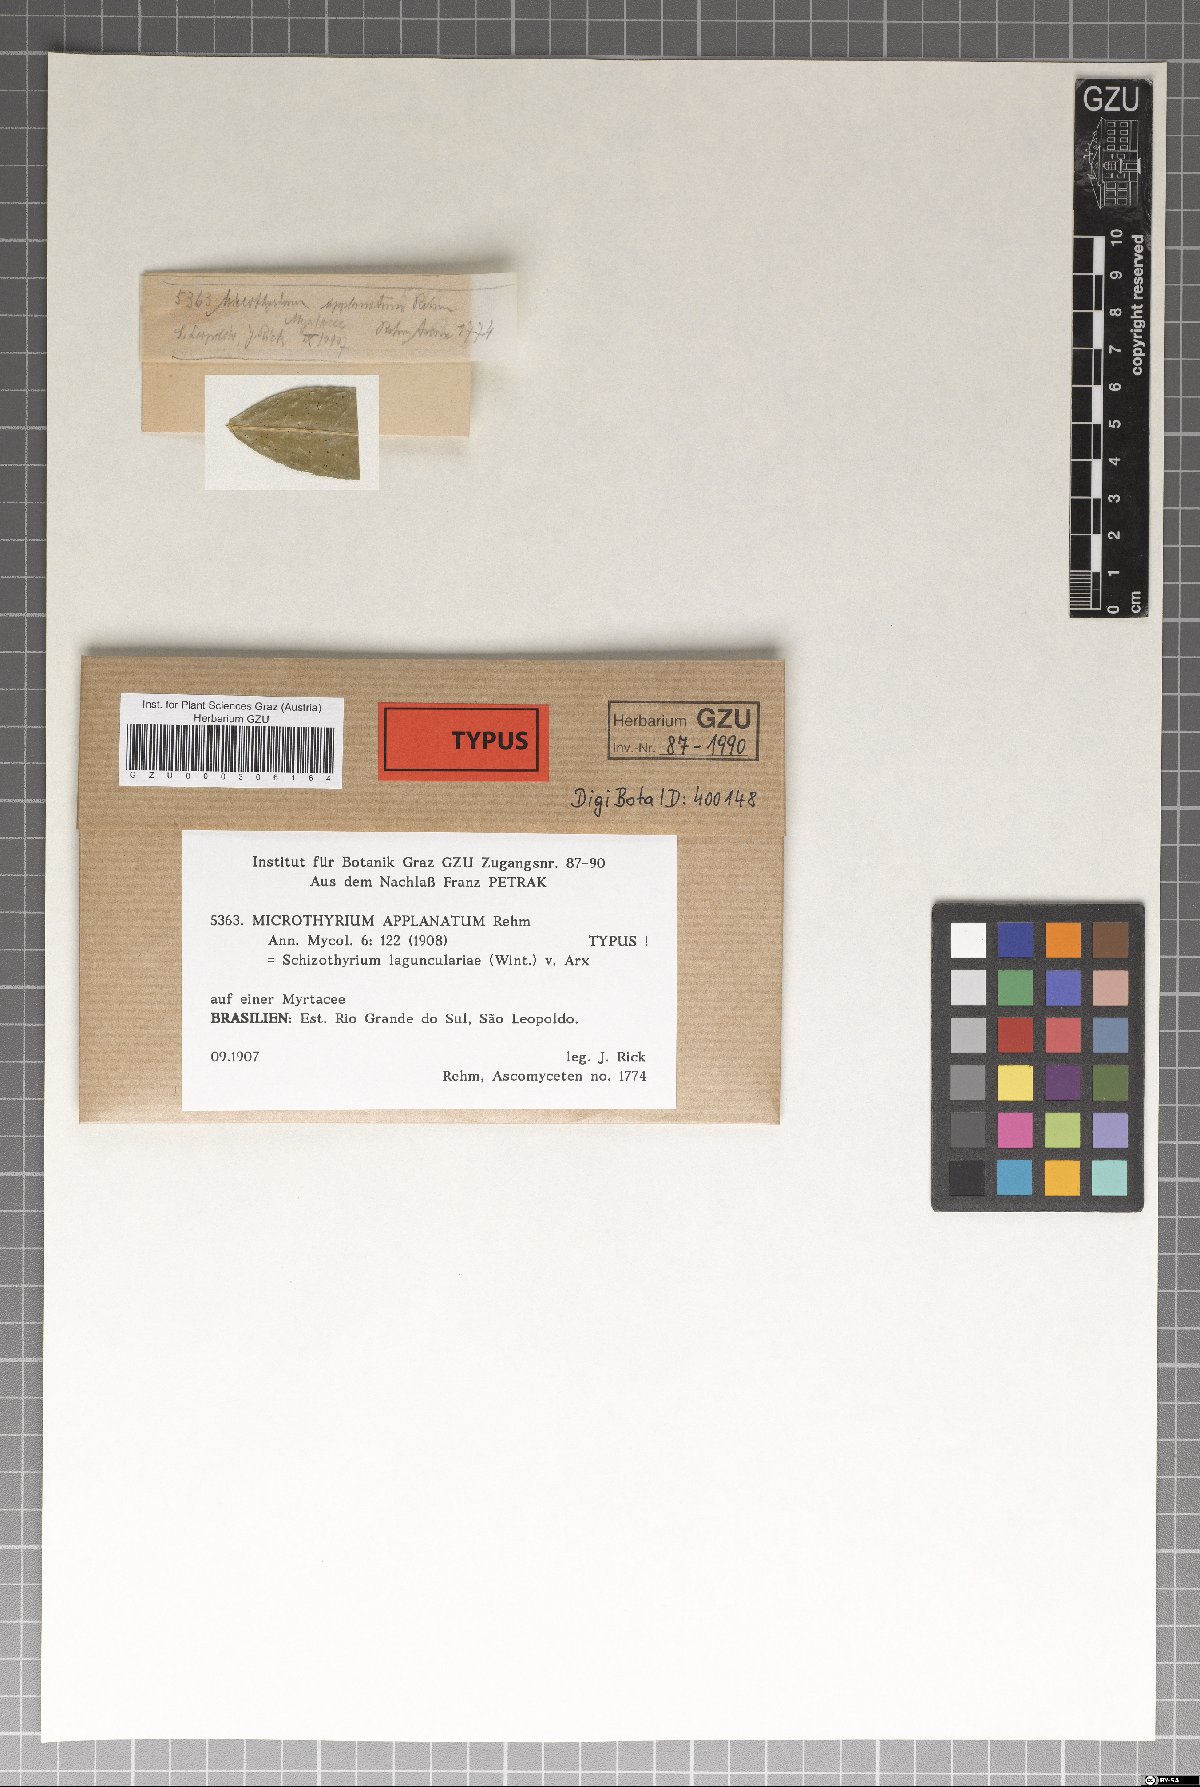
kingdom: Fungi
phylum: Ascomycota
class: Dothideomycetes
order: Microthyriales
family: Microthyriaceae
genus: Microthyrium
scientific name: Microthyrium applanatum
